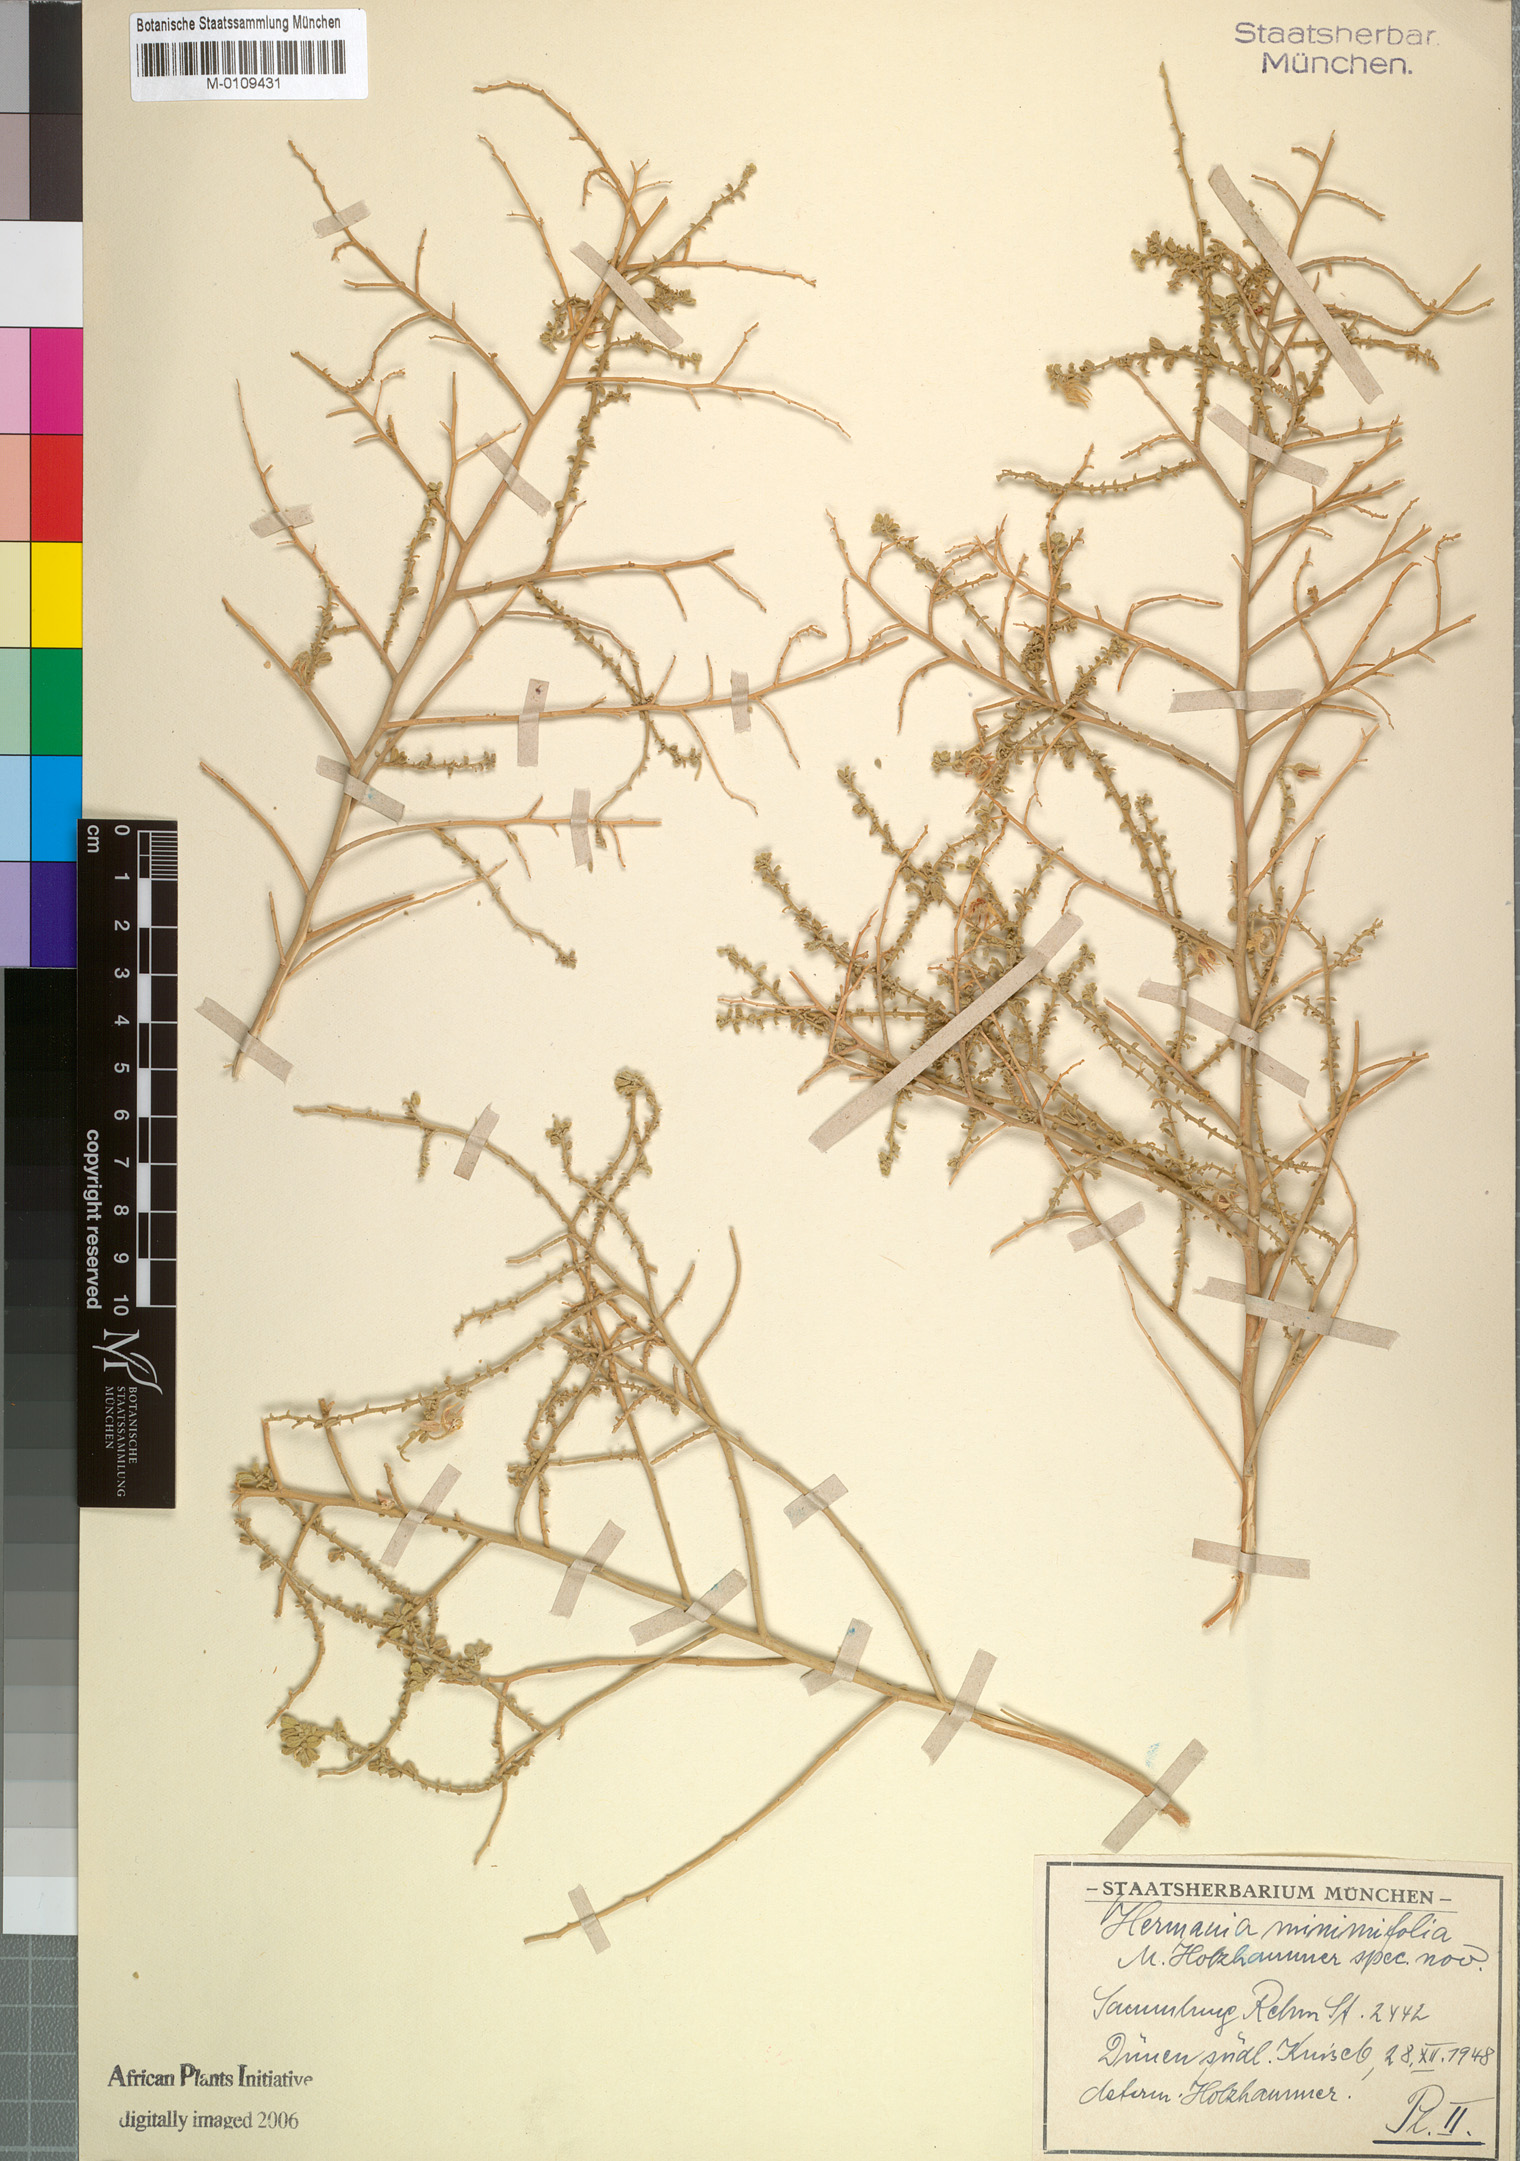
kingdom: Plantae
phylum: Tracheophyta
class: Magnoliopsida
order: Malvales
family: Malvaceae
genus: Hermannia
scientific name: Hermannia minimifolia
